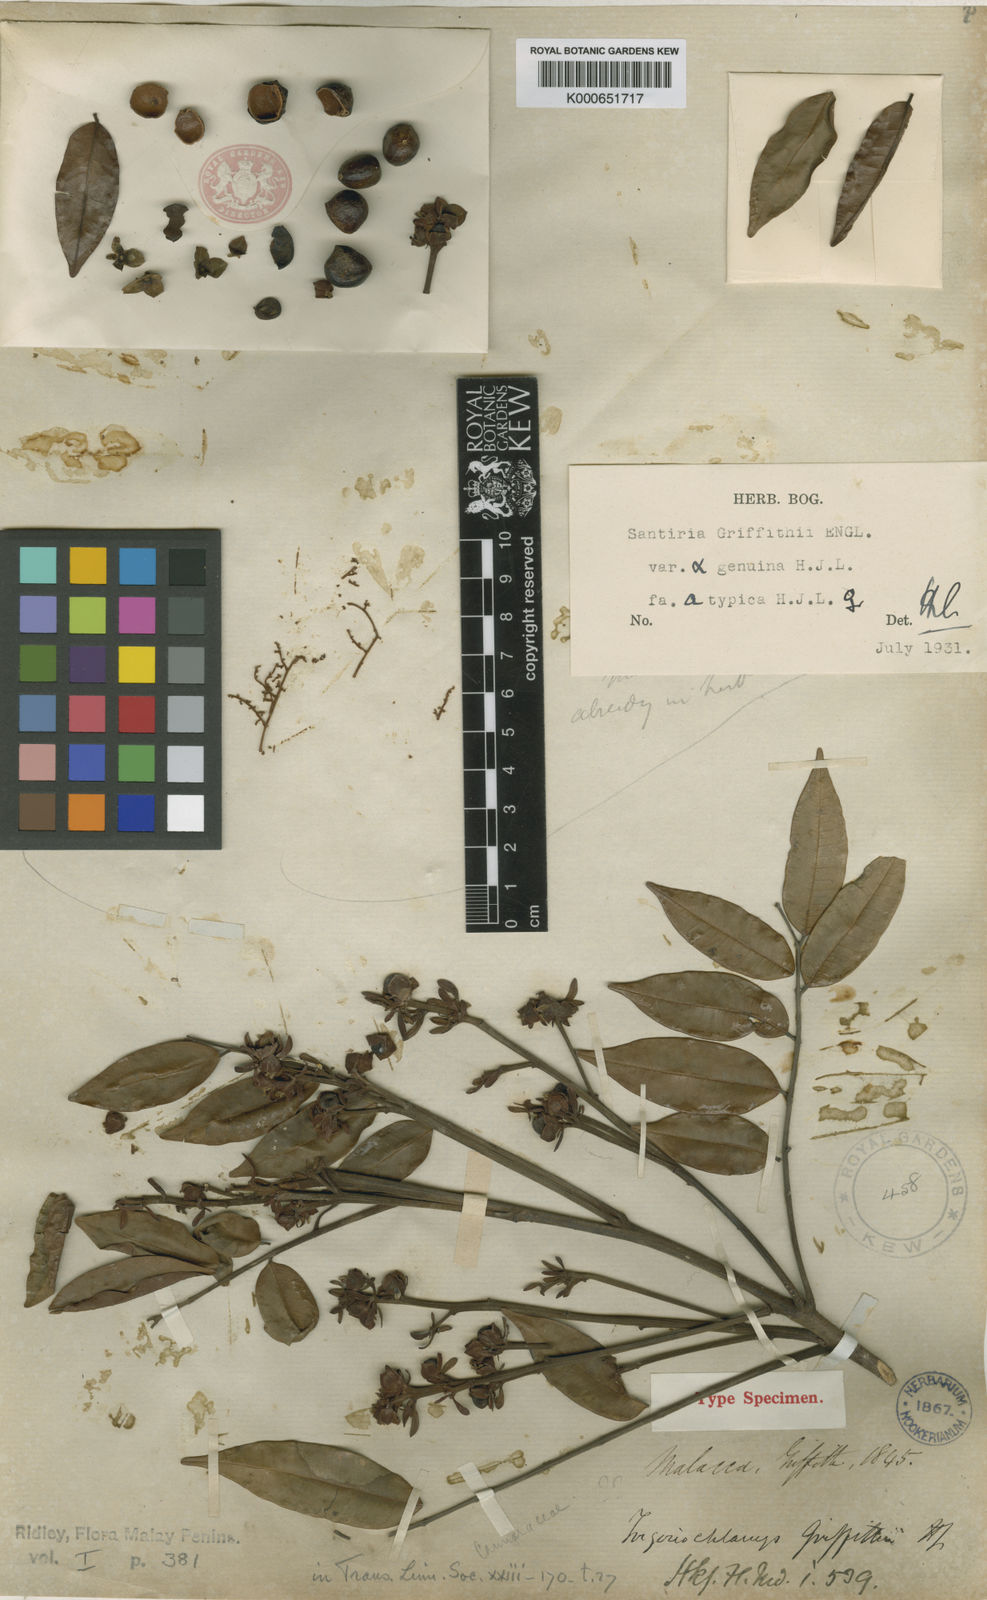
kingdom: Plantae
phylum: Tracheophyta
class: Magnoliopsida
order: Sapindales
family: Burseraceae
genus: Santiria
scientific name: Santiria griffithii
